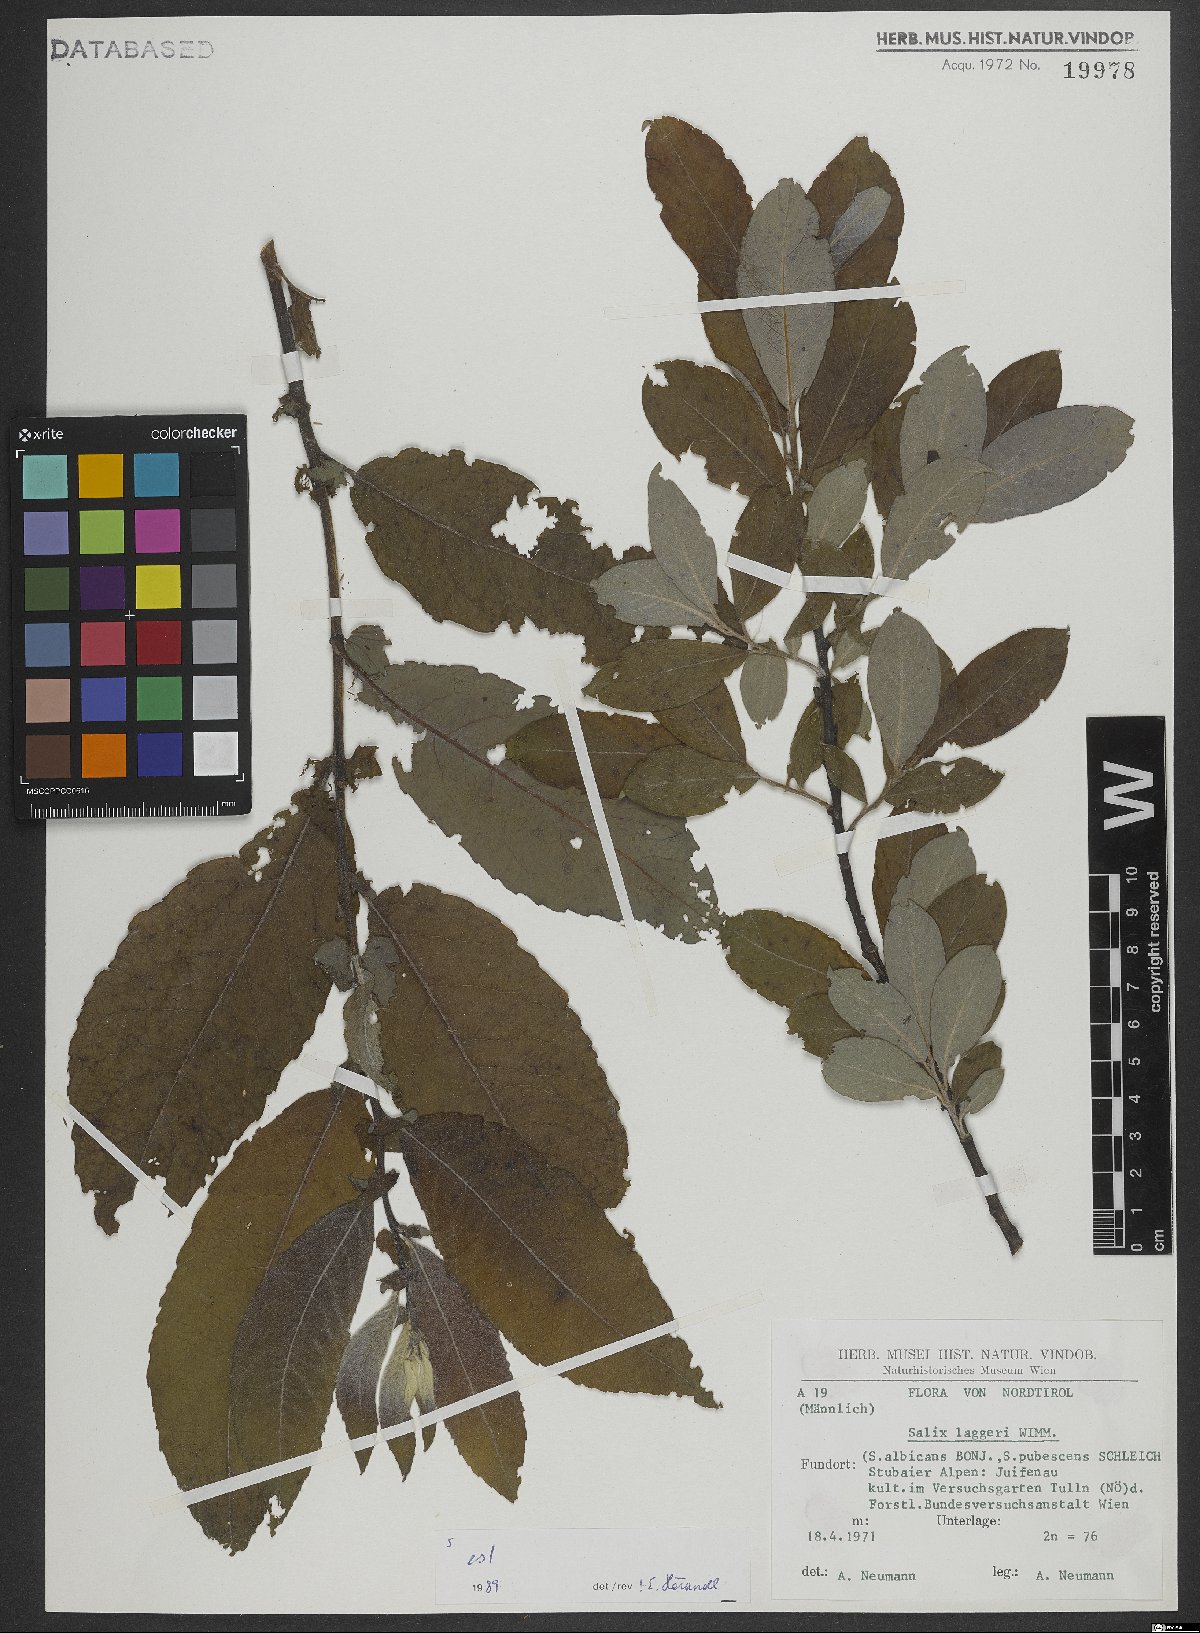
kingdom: Plantae
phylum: Tracheophyta
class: Magnoliopsida
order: Malpighiales
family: Salicaceae
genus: Salix
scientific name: Salix laggeri
